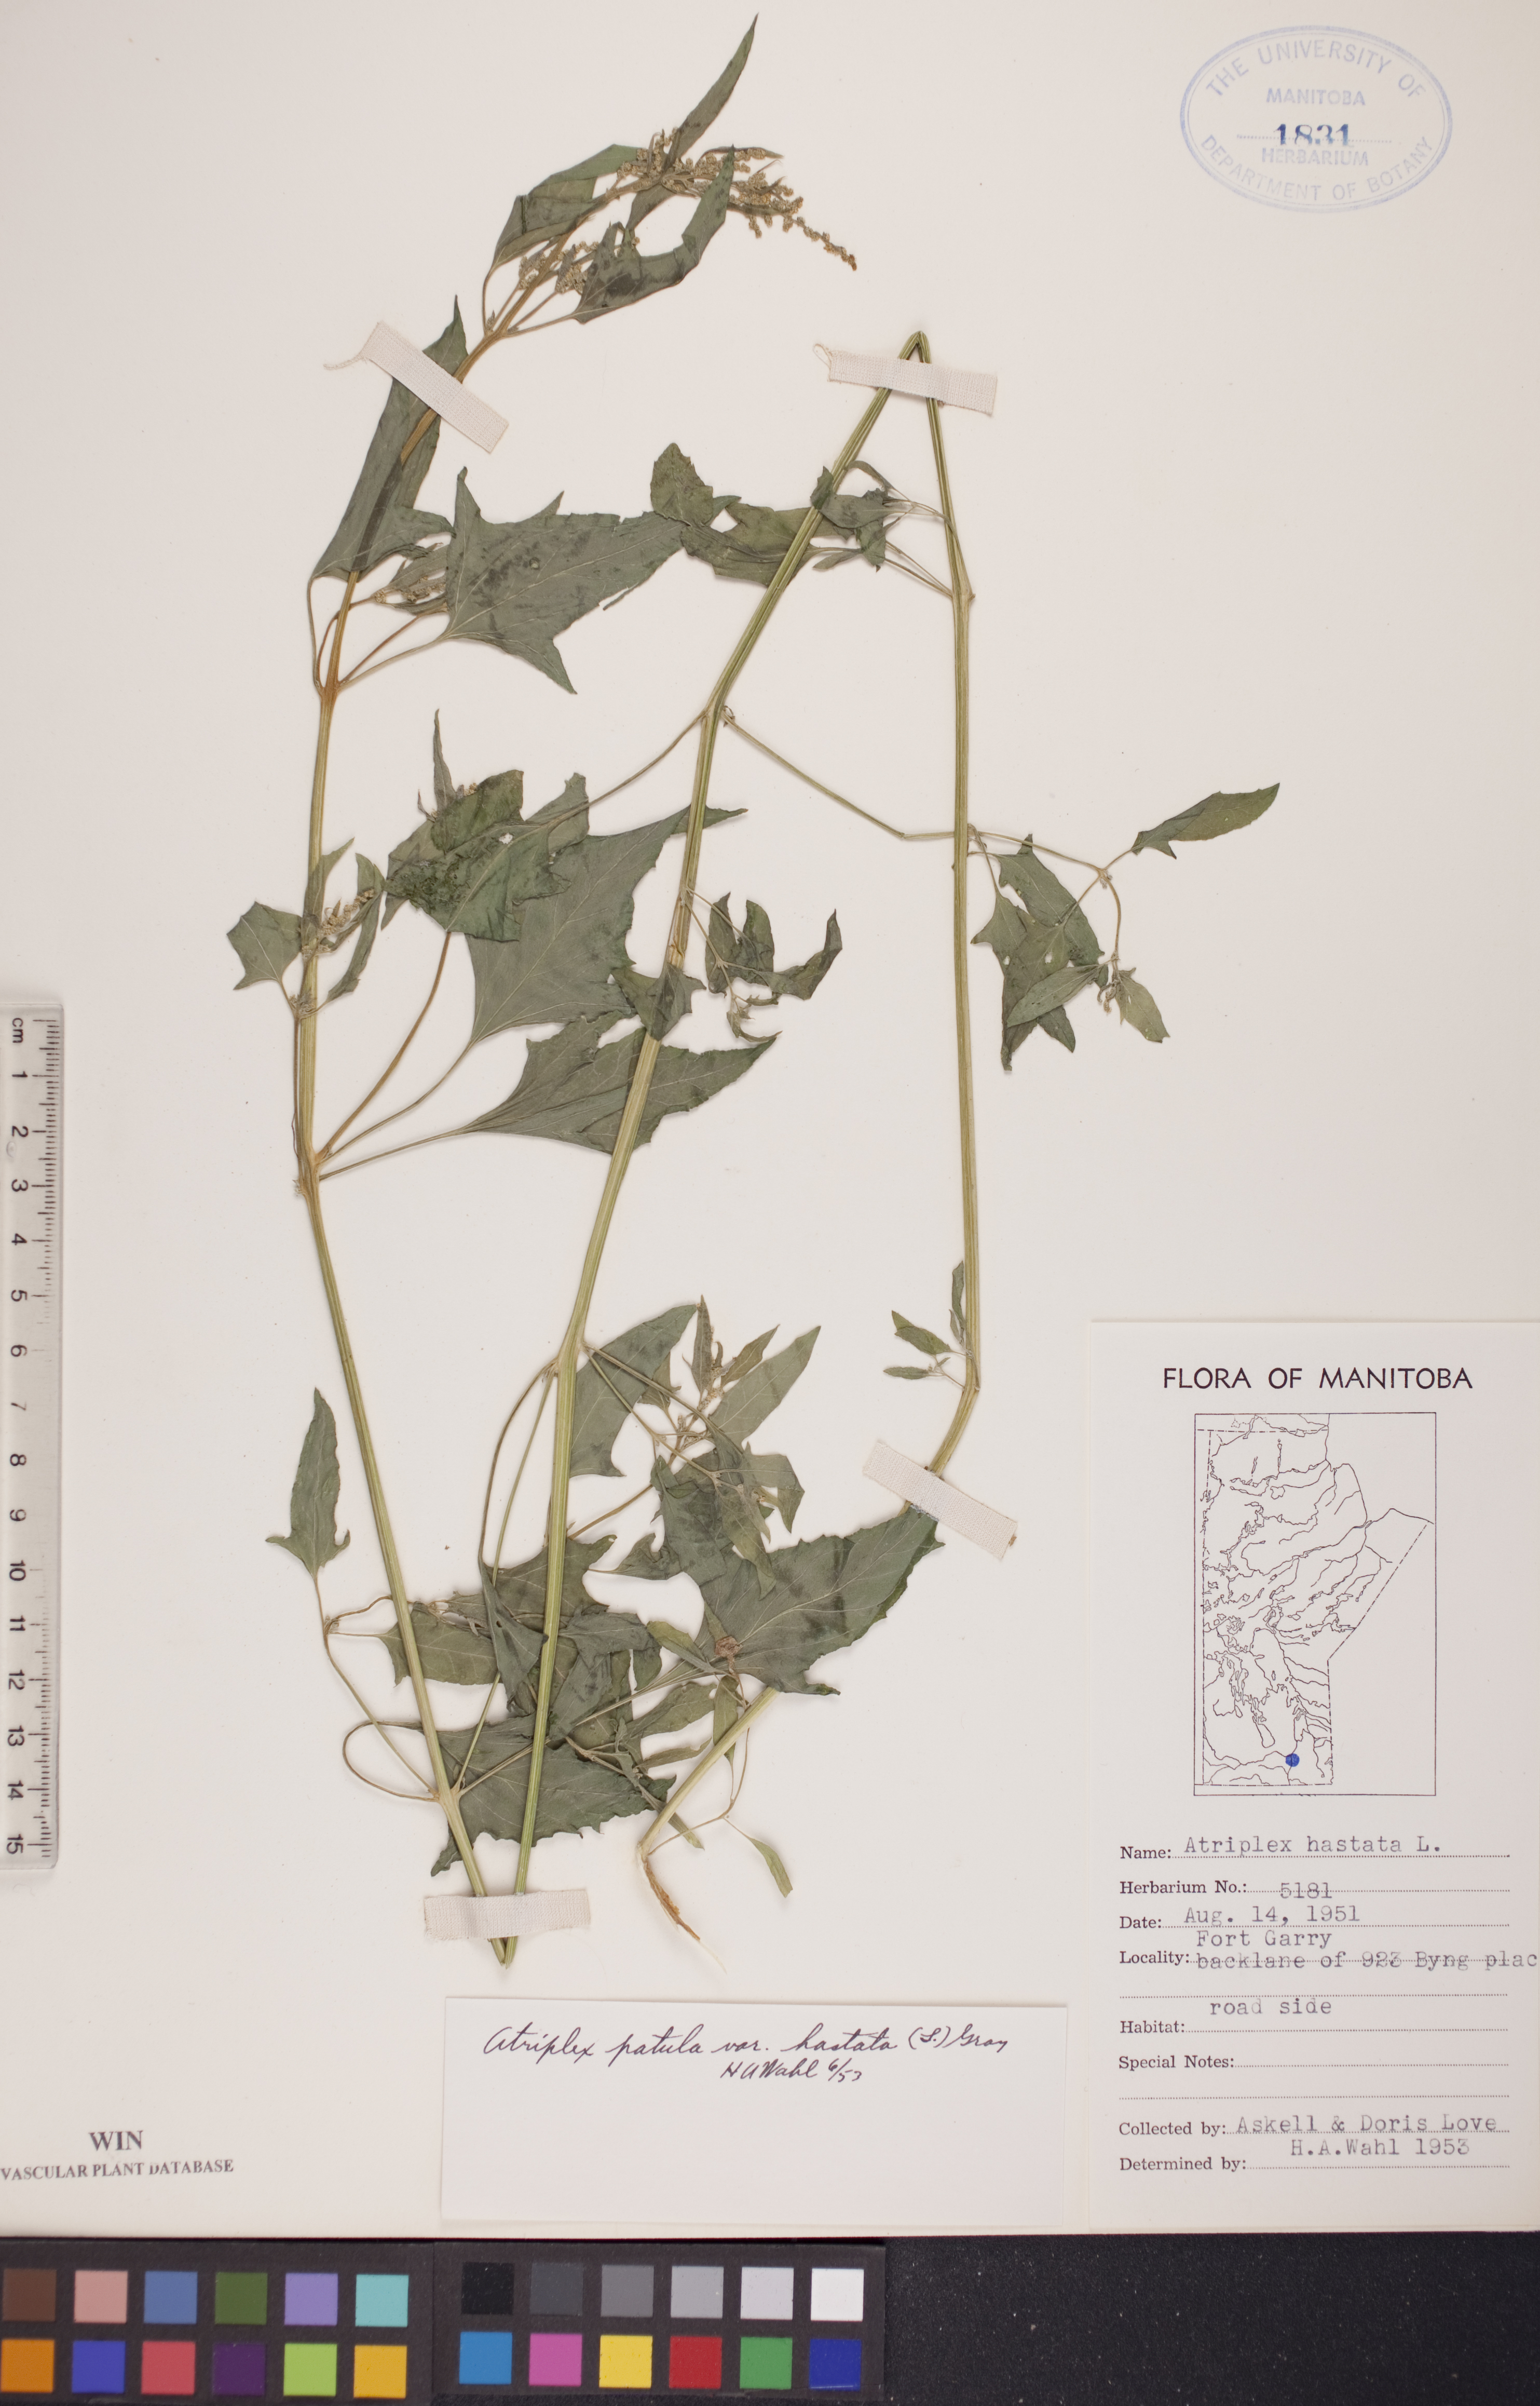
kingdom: Plantae
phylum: Tracheophyta
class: Magnoliopsida
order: Caryophyllales
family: Amaranthaceae
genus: Atriplex
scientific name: Atriplex
